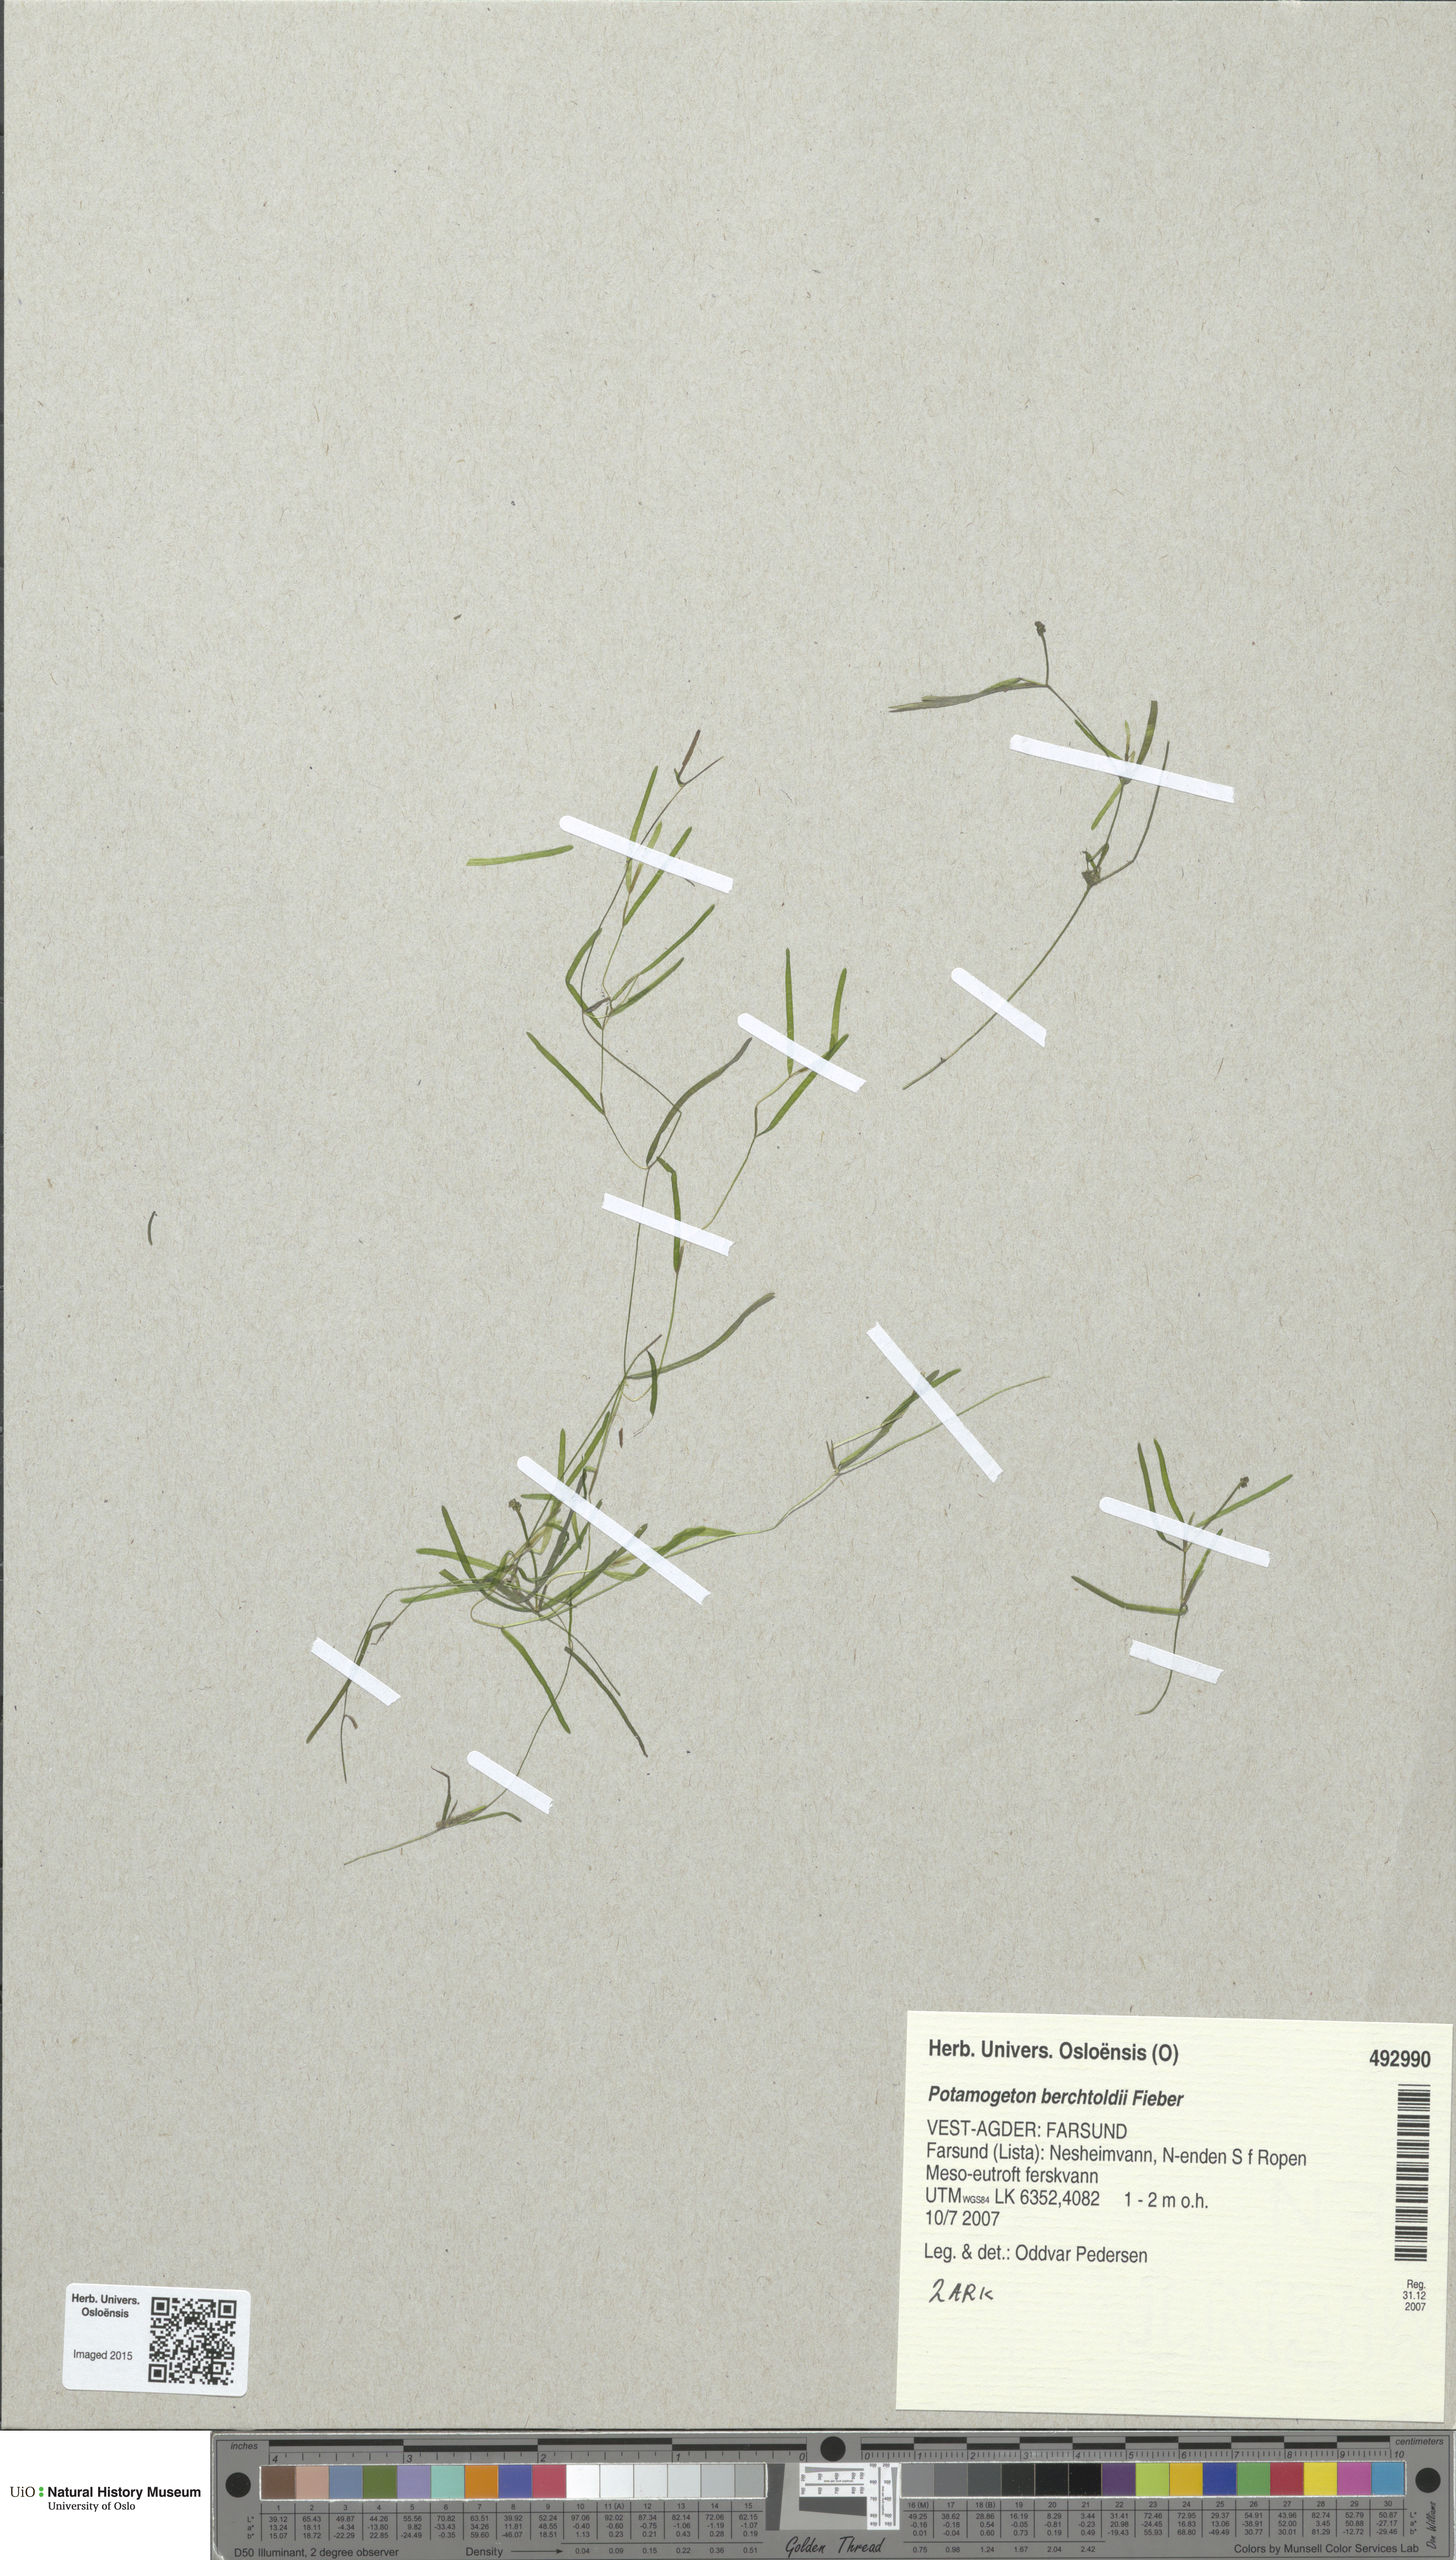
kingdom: Plantae
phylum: Tracheophyta
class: Liliopsida
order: Alismatales
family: Potamogetonaceae
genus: Potamogeton
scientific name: Potamogeton berchtoldii
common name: Small pondweed
